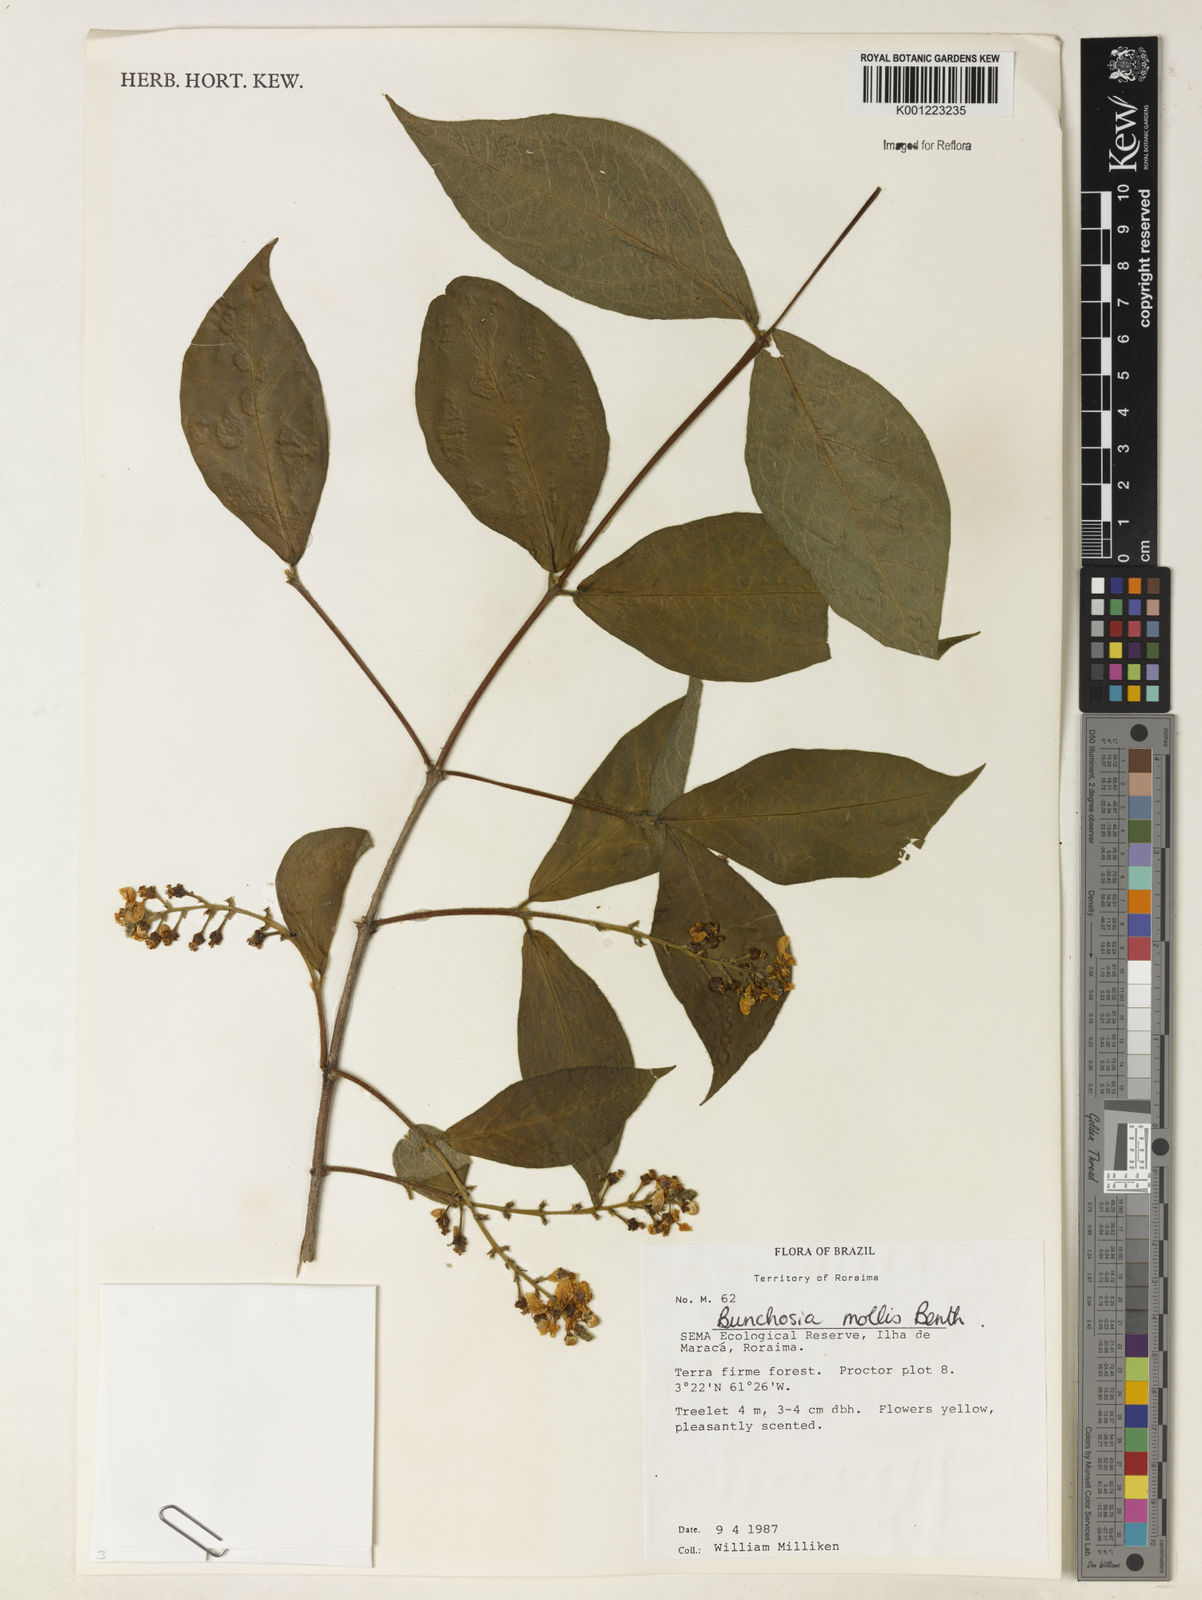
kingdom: Plantae
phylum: Tracheophyta
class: Magnoliopsida
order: Malpighiales
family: Malpighiaceae
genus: Bunchosia
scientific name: Bunchosia mollis
